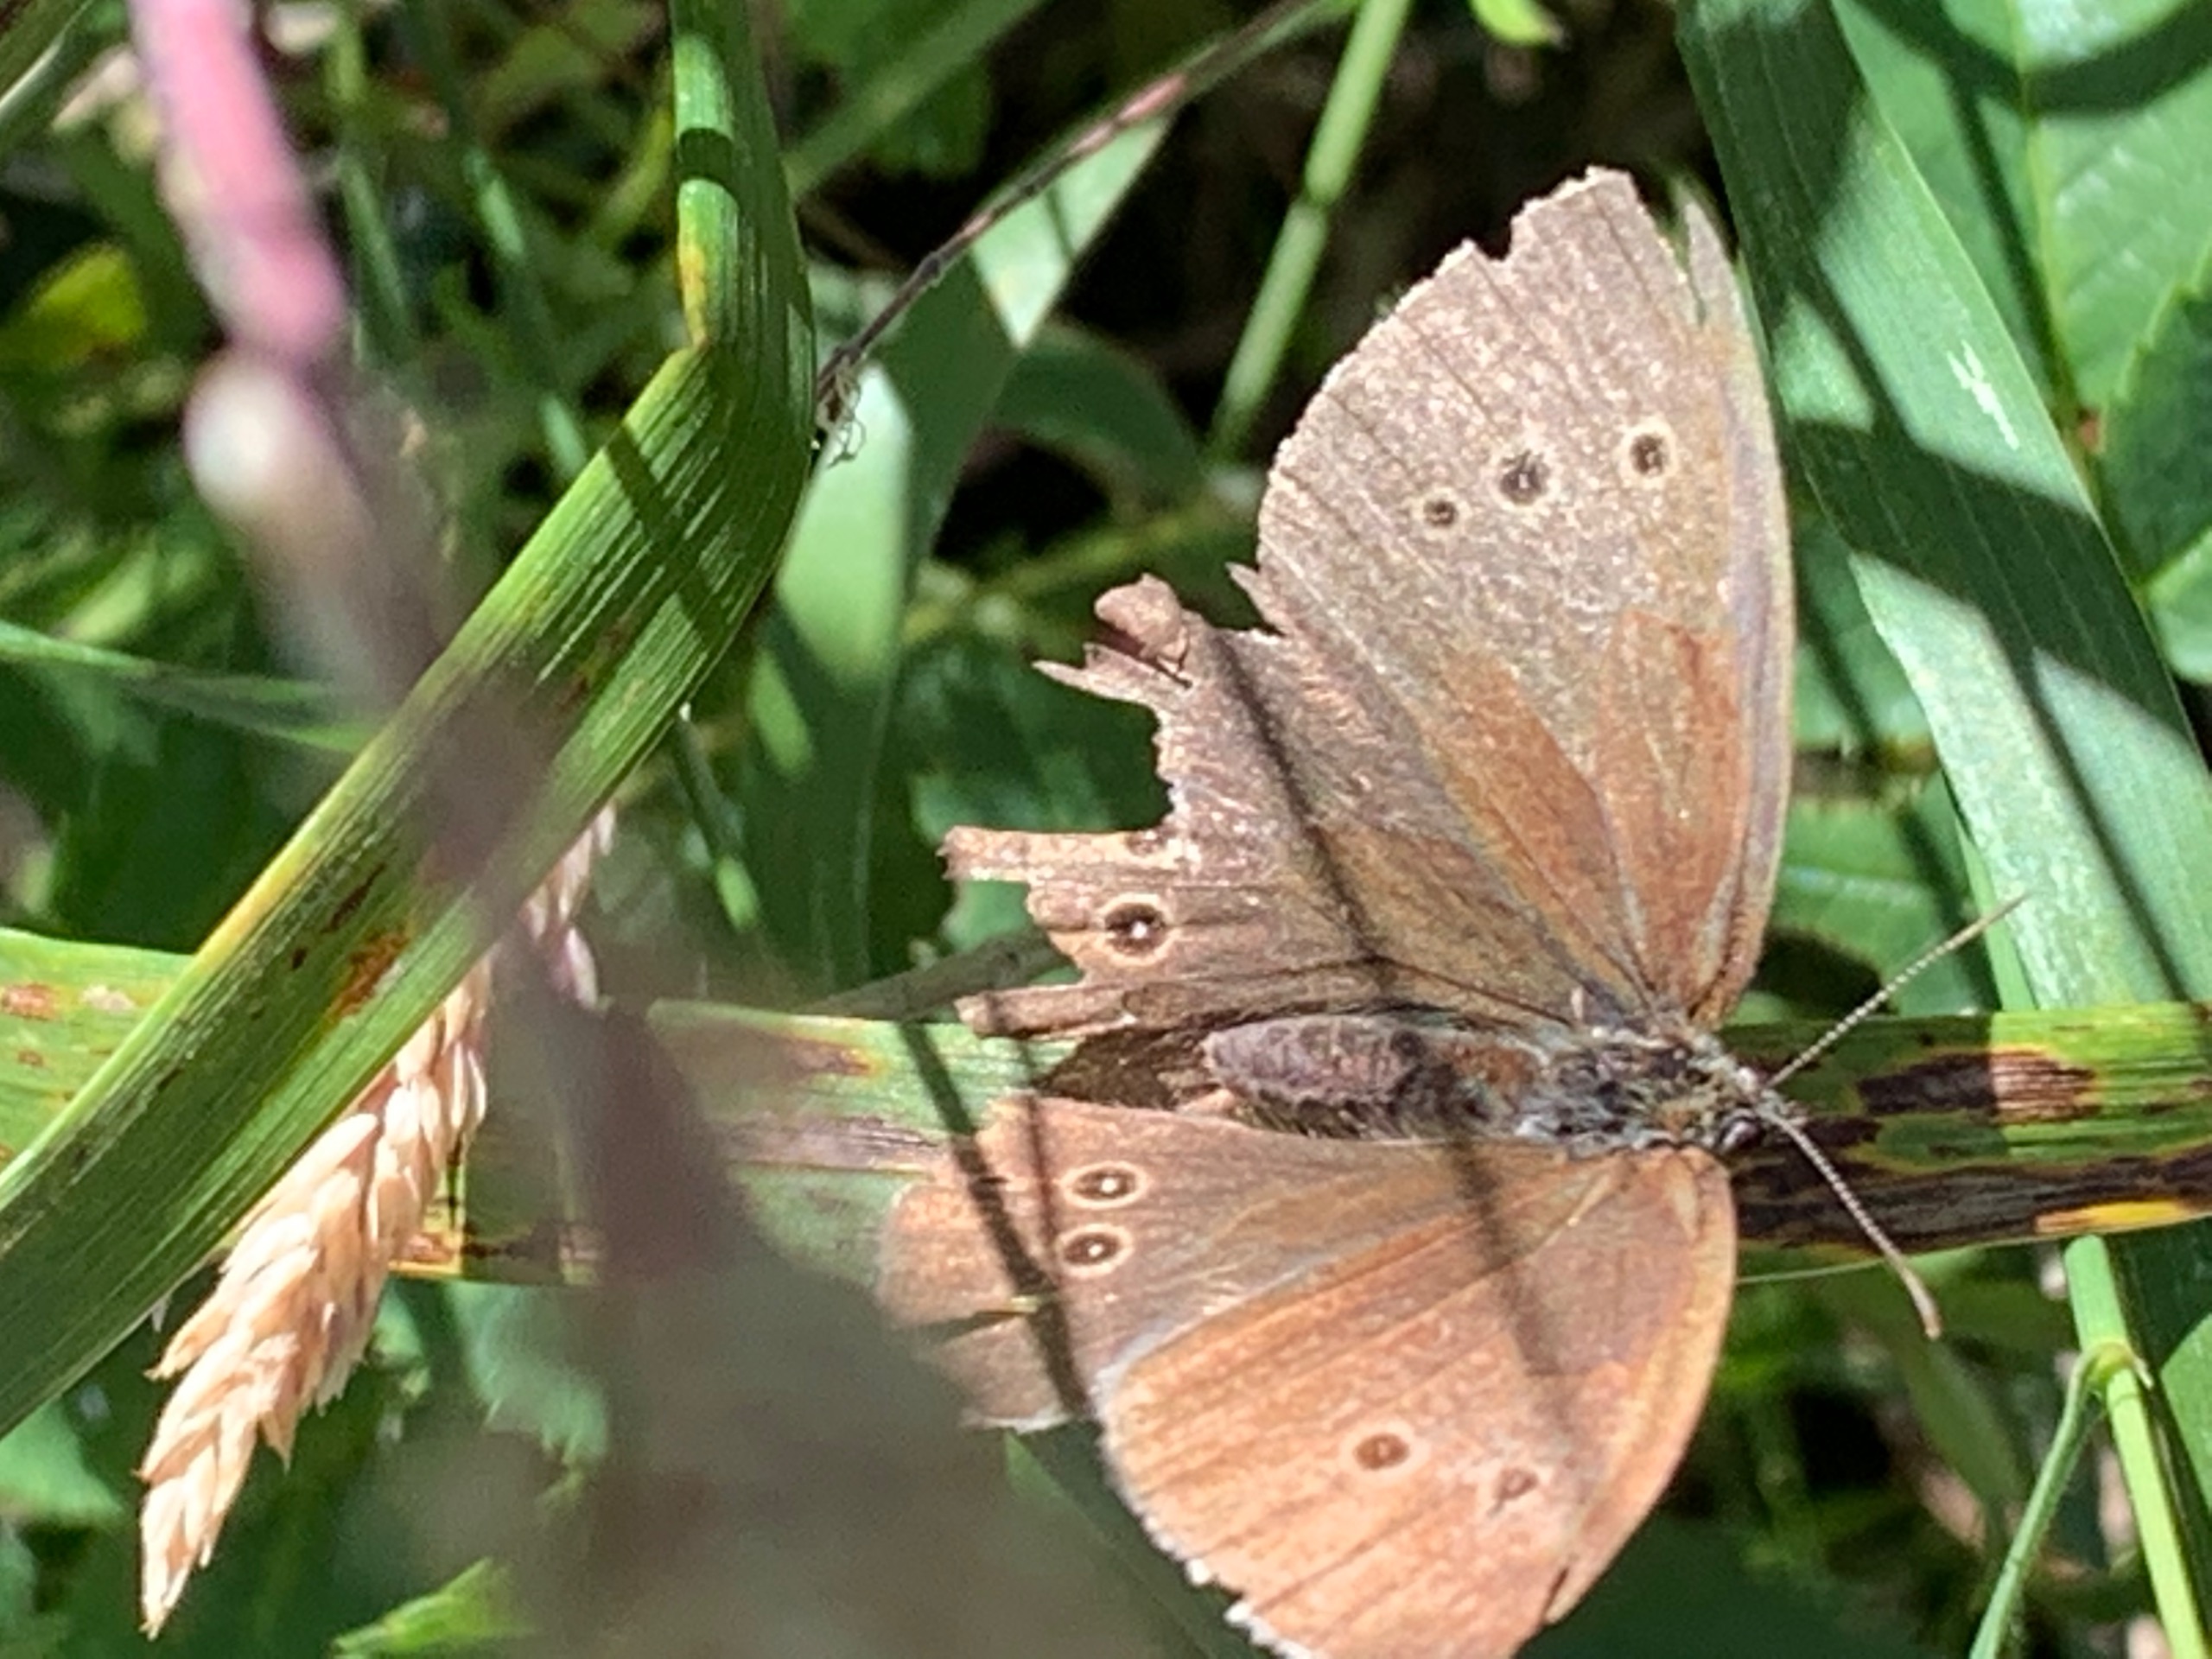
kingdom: Animalia
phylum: Arthropoda
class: Insecta
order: Lepidoptera
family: Nymphalidae
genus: Aphantopus
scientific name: Aphantopus hyperantus
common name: Engrandøje
